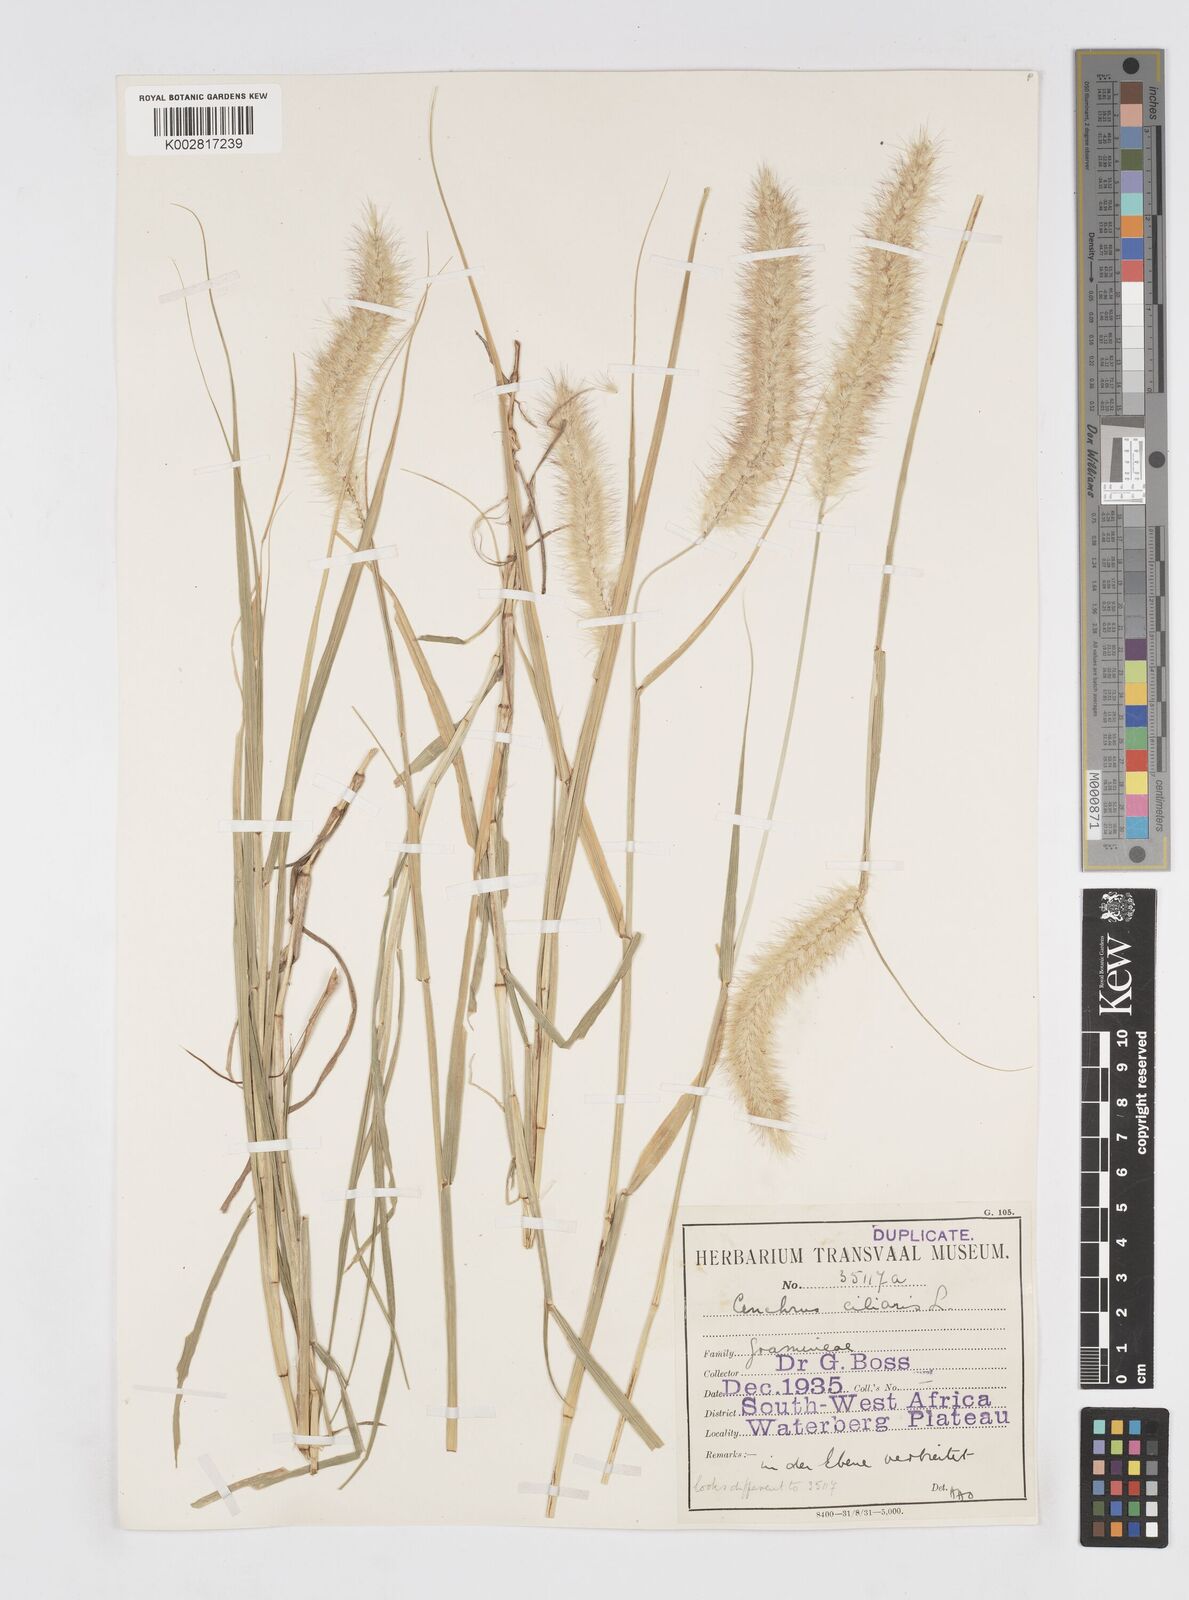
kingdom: Plantae
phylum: Tracheophyta
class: Liliopsida
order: Poales
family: Poaceae
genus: Cenchrus
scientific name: Cenchrus ciliaris
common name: Buffelgrass
